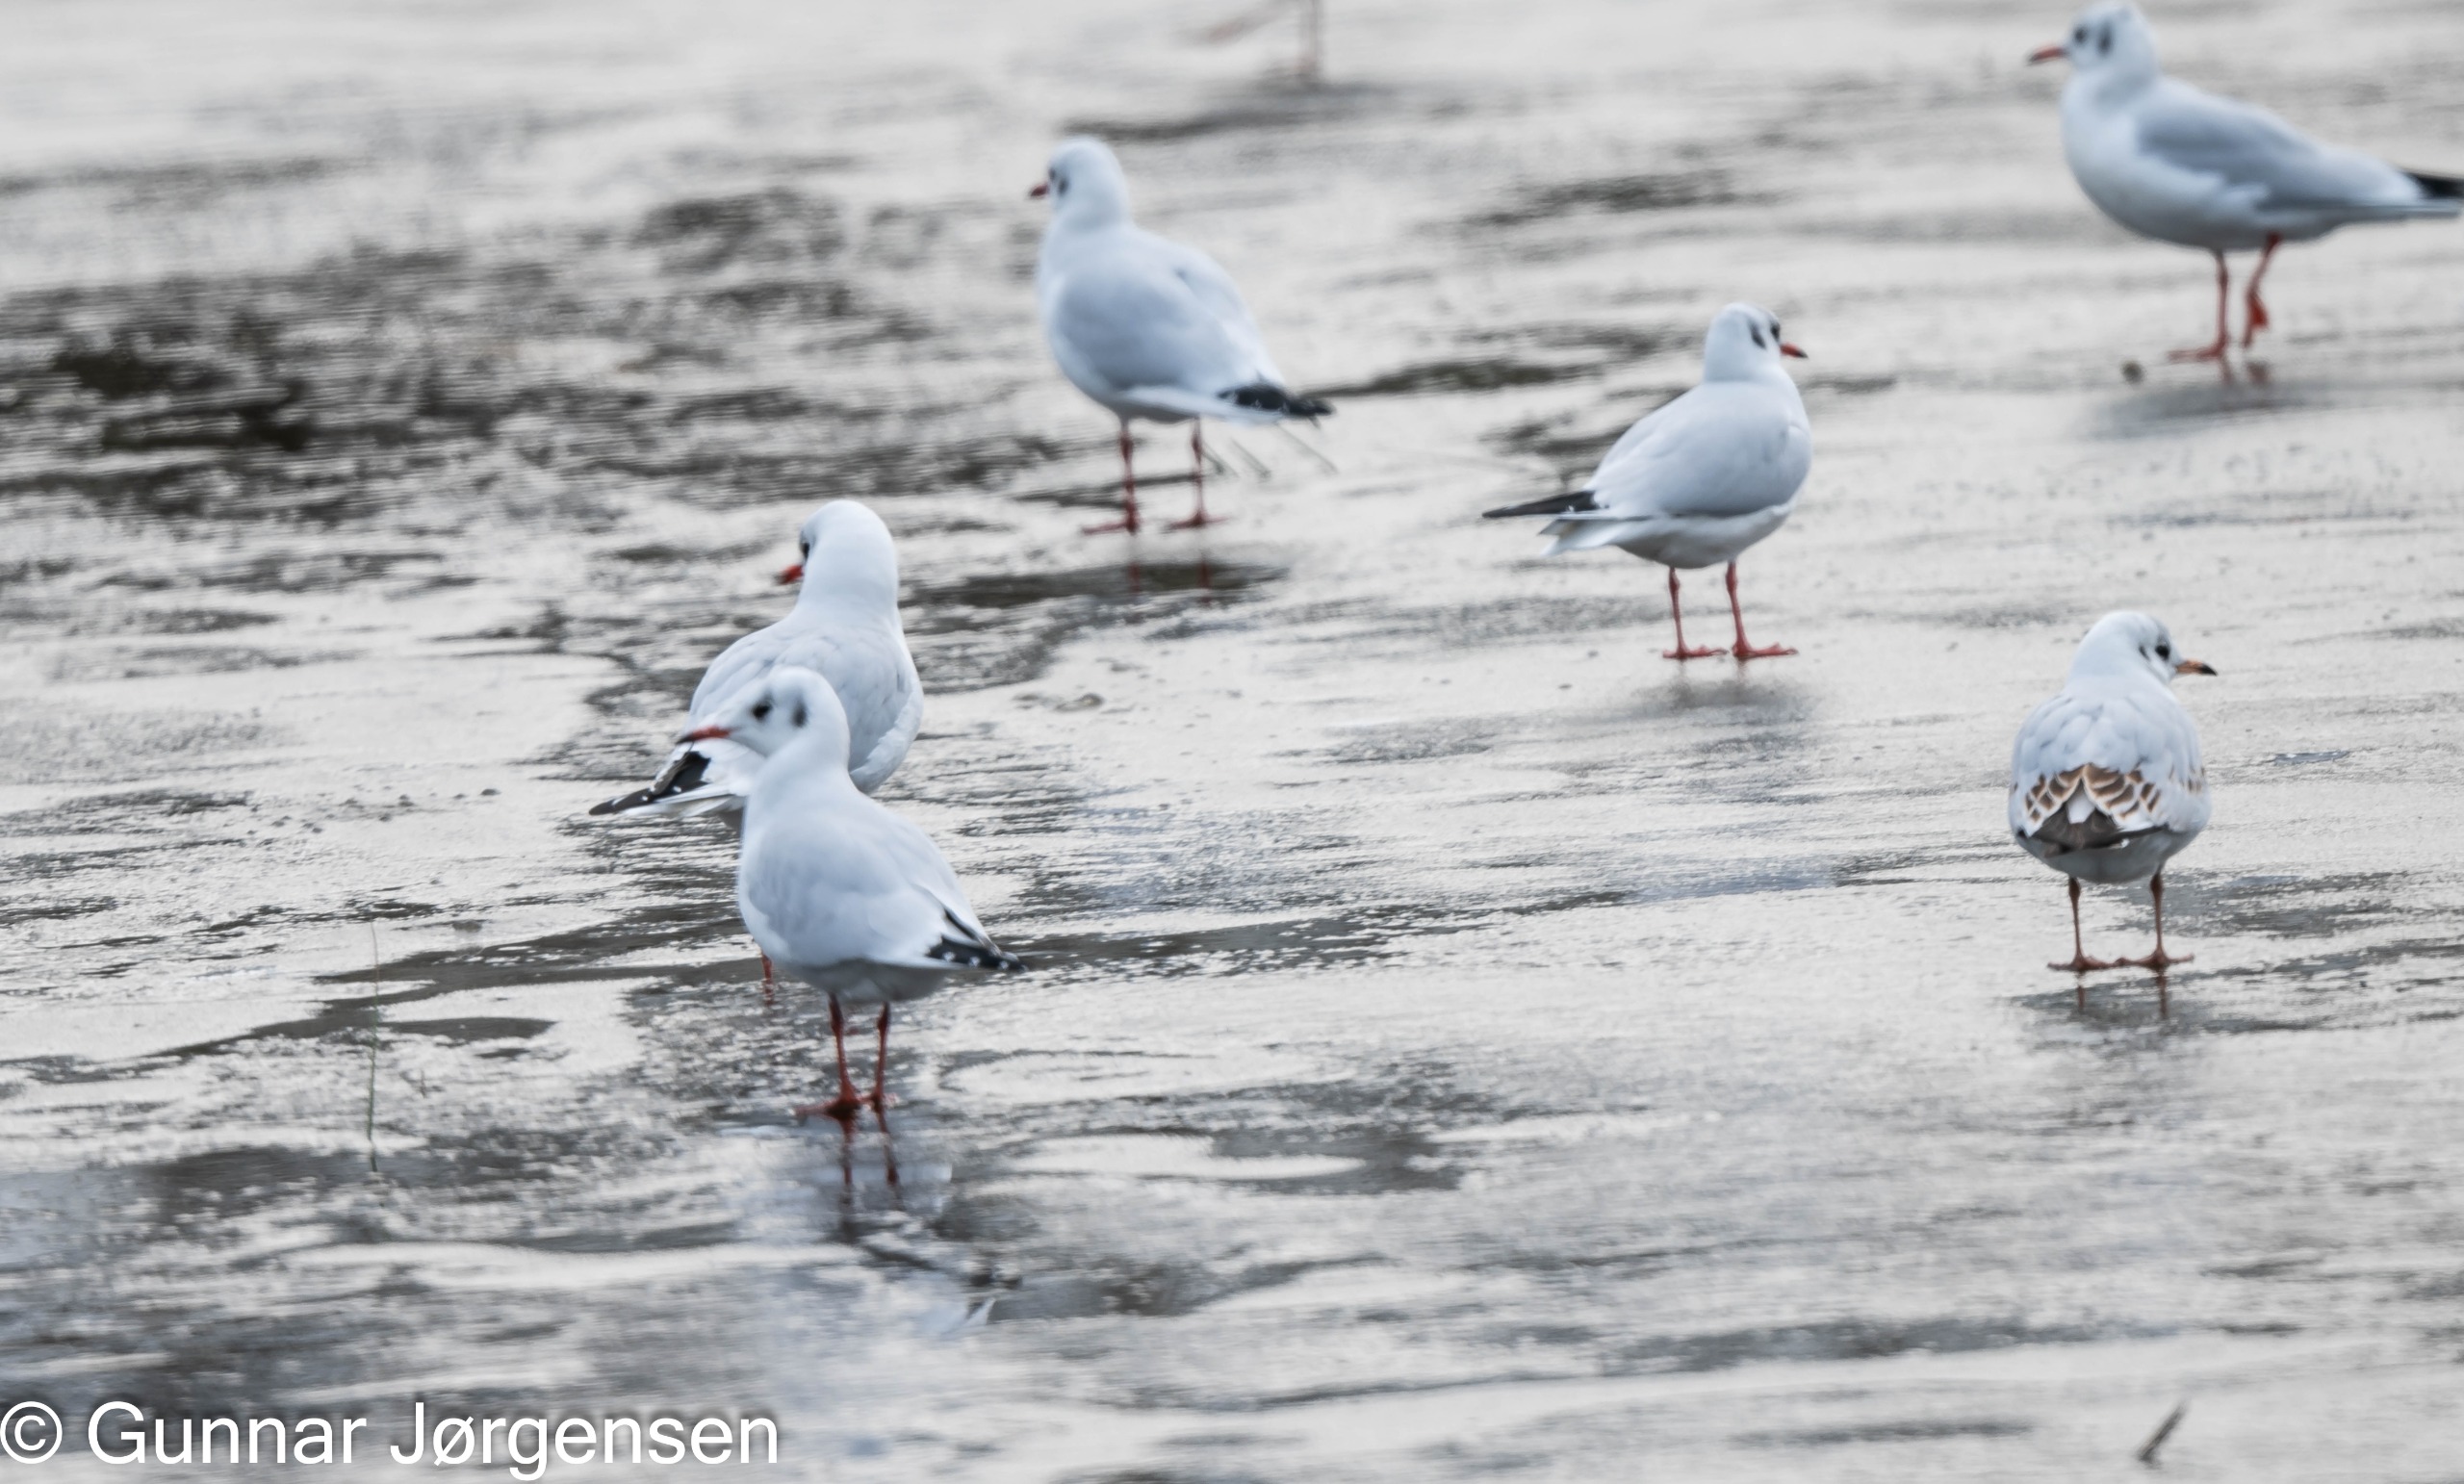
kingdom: Animalia
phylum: Chordata
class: Aves
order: Charadriiformes
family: Laridae
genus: Chroicocephalus
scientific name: Chroicocephalus ridibundus
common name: Hættemåge
